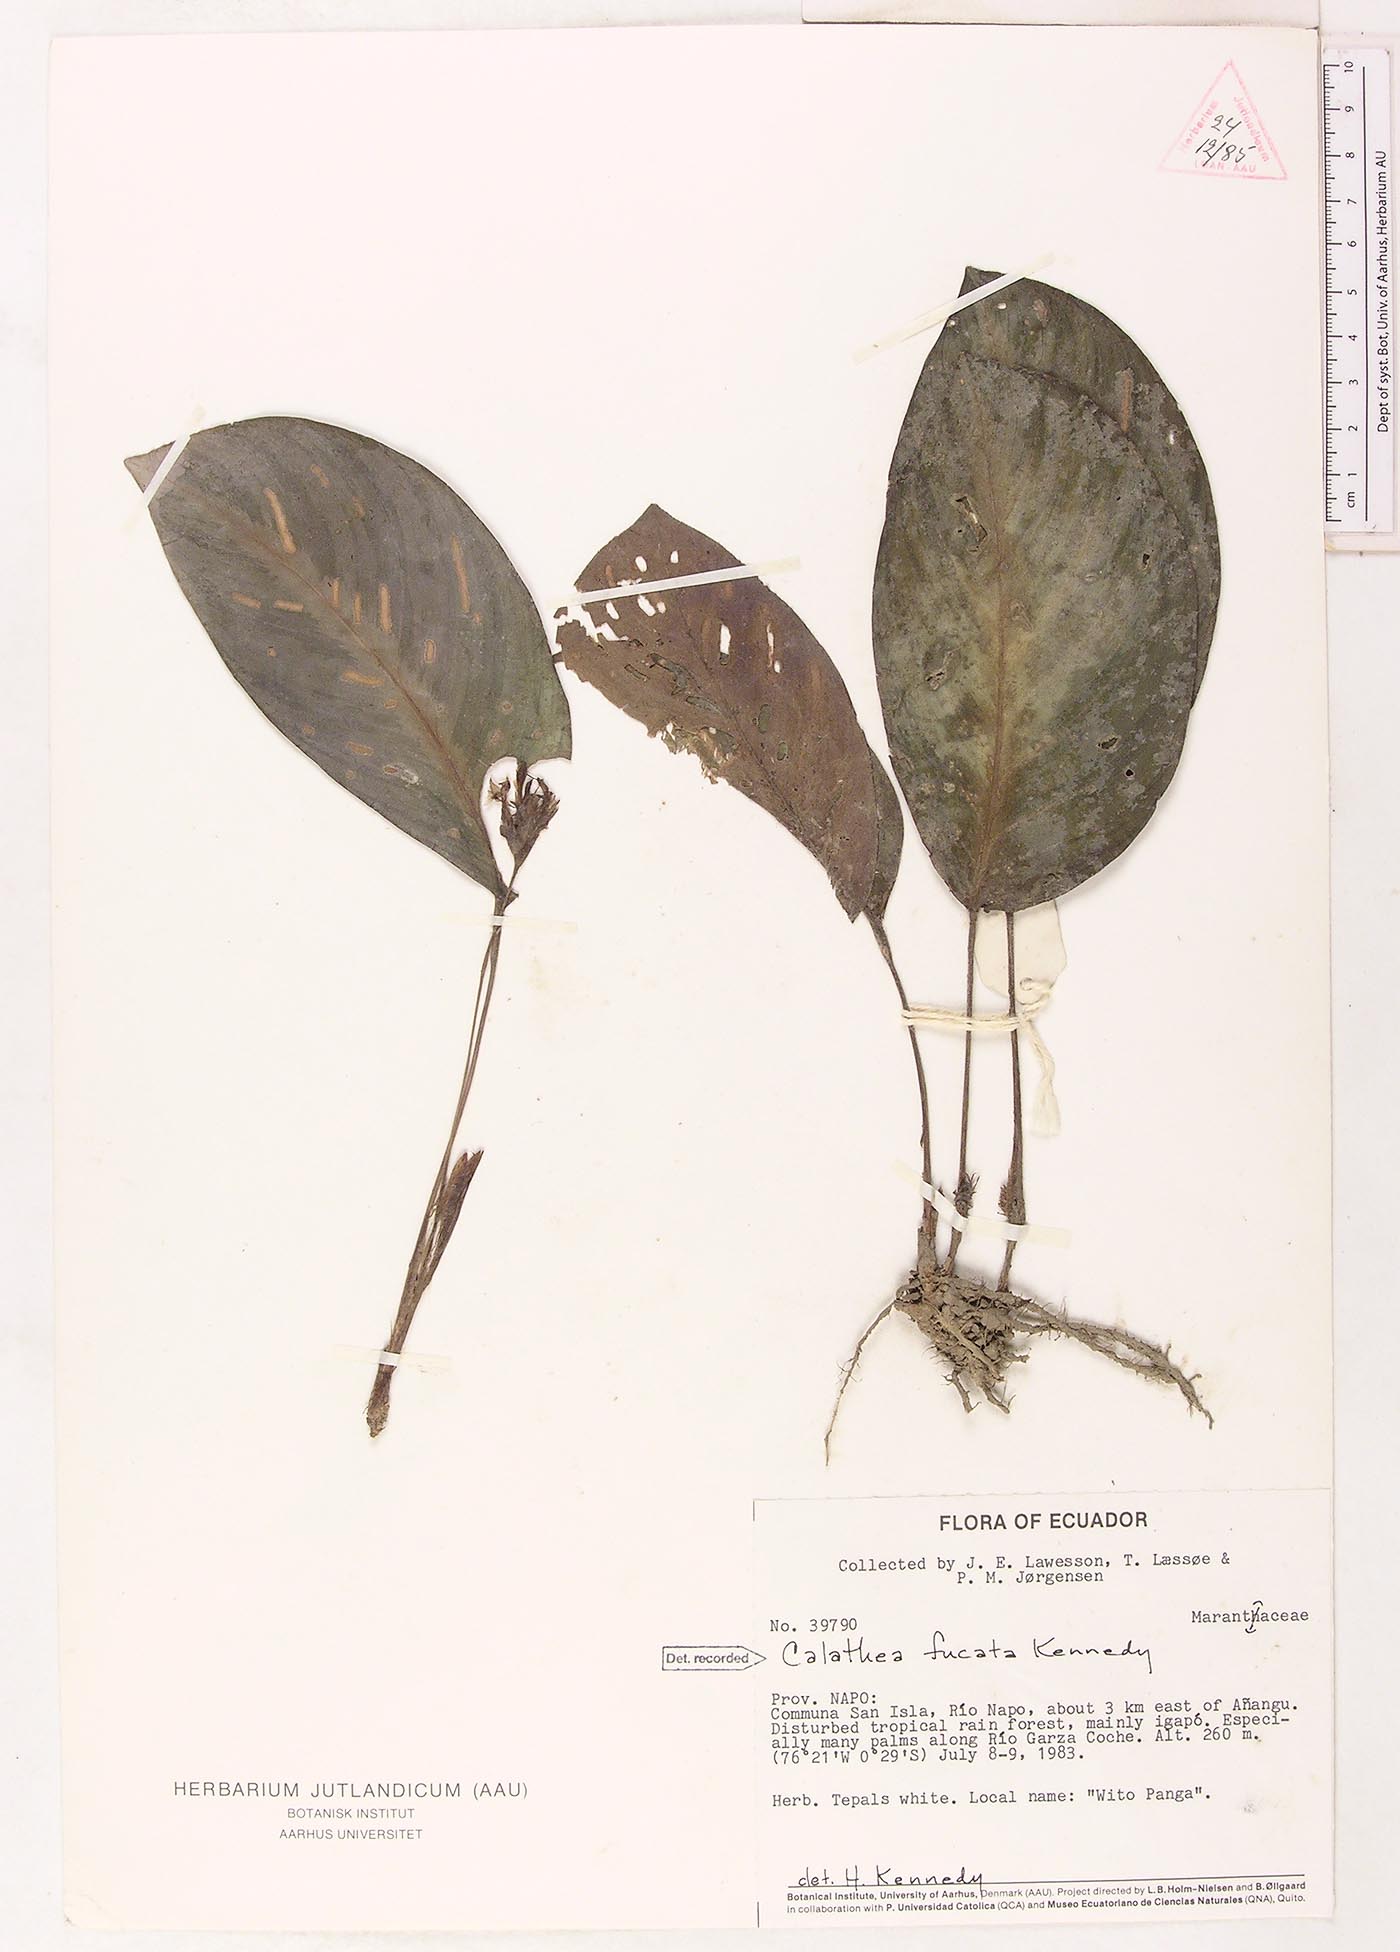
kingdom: Plantae
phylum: Tracheophyta
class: Liliopsida
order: Zingiberales
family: Marantaceae
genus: Goeppertia
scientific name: Goeppertia fucata
